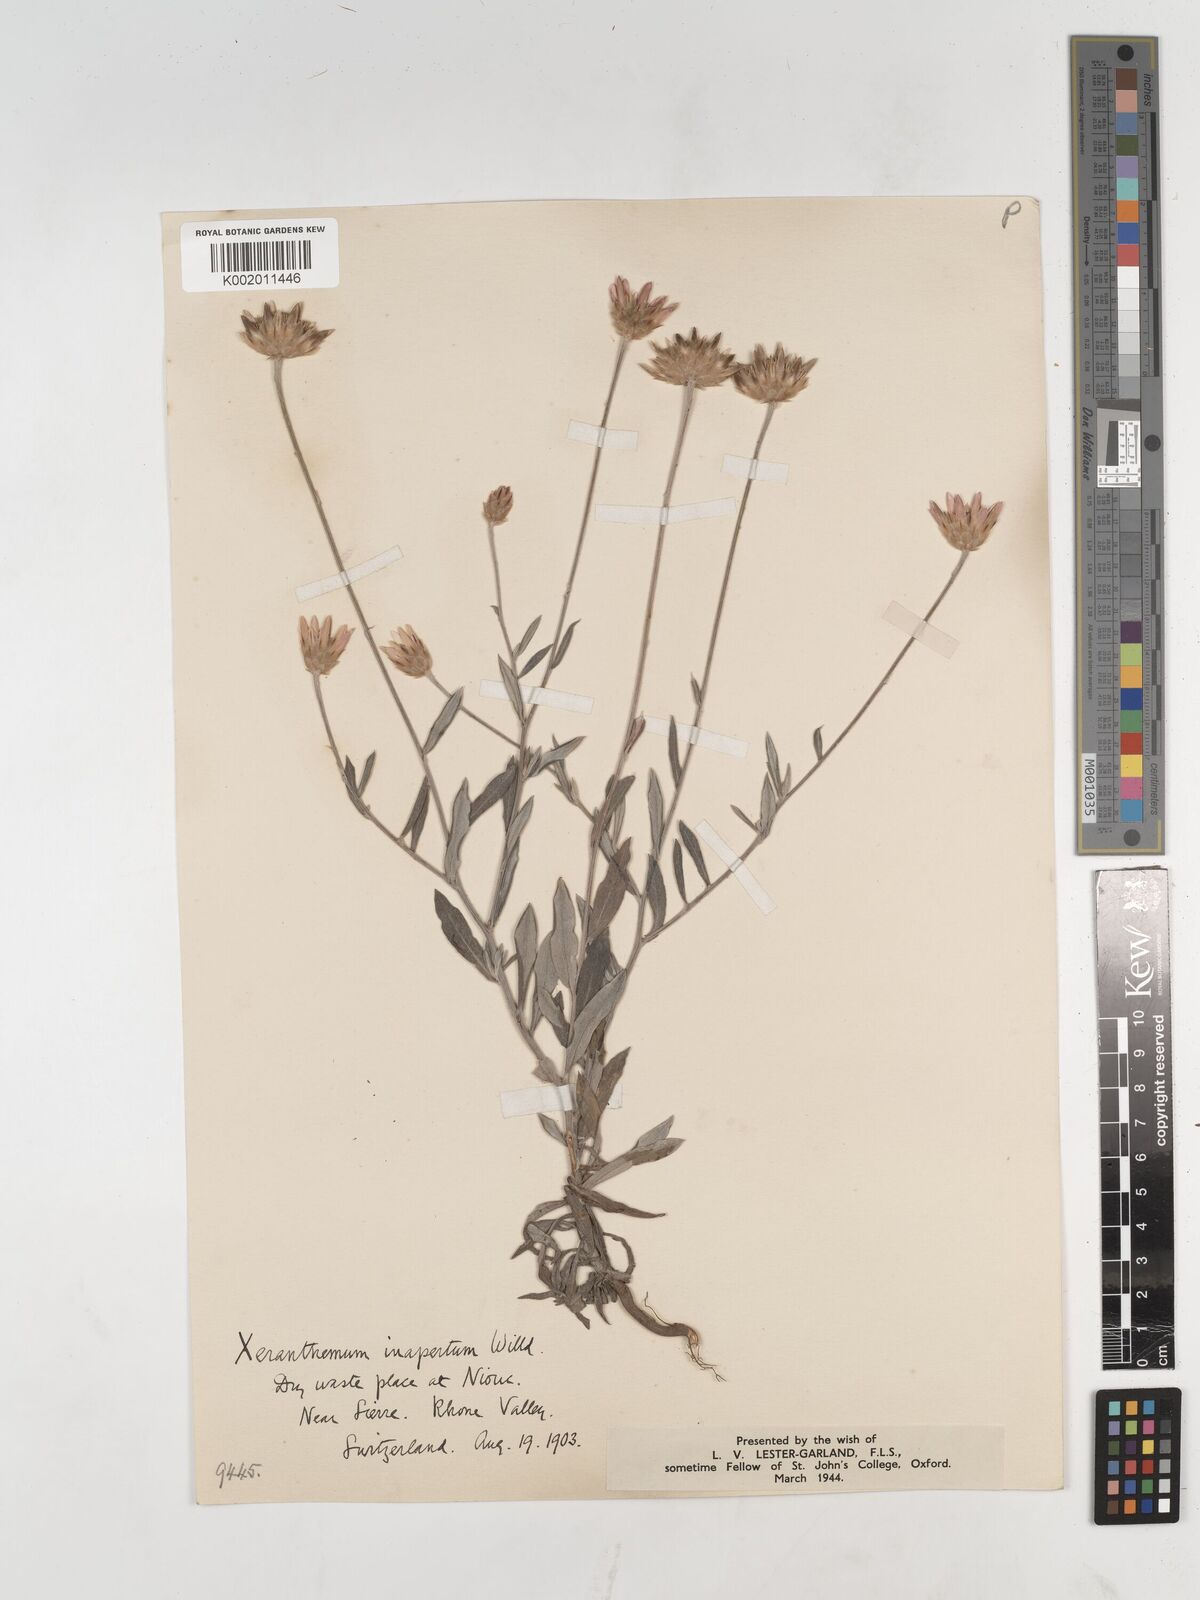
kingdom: Plantae
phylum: Tracheophyta
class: Magnoliopsida
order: Asterales
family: Asteraceae
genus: Xeranthemum
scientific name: Xeranthemum
